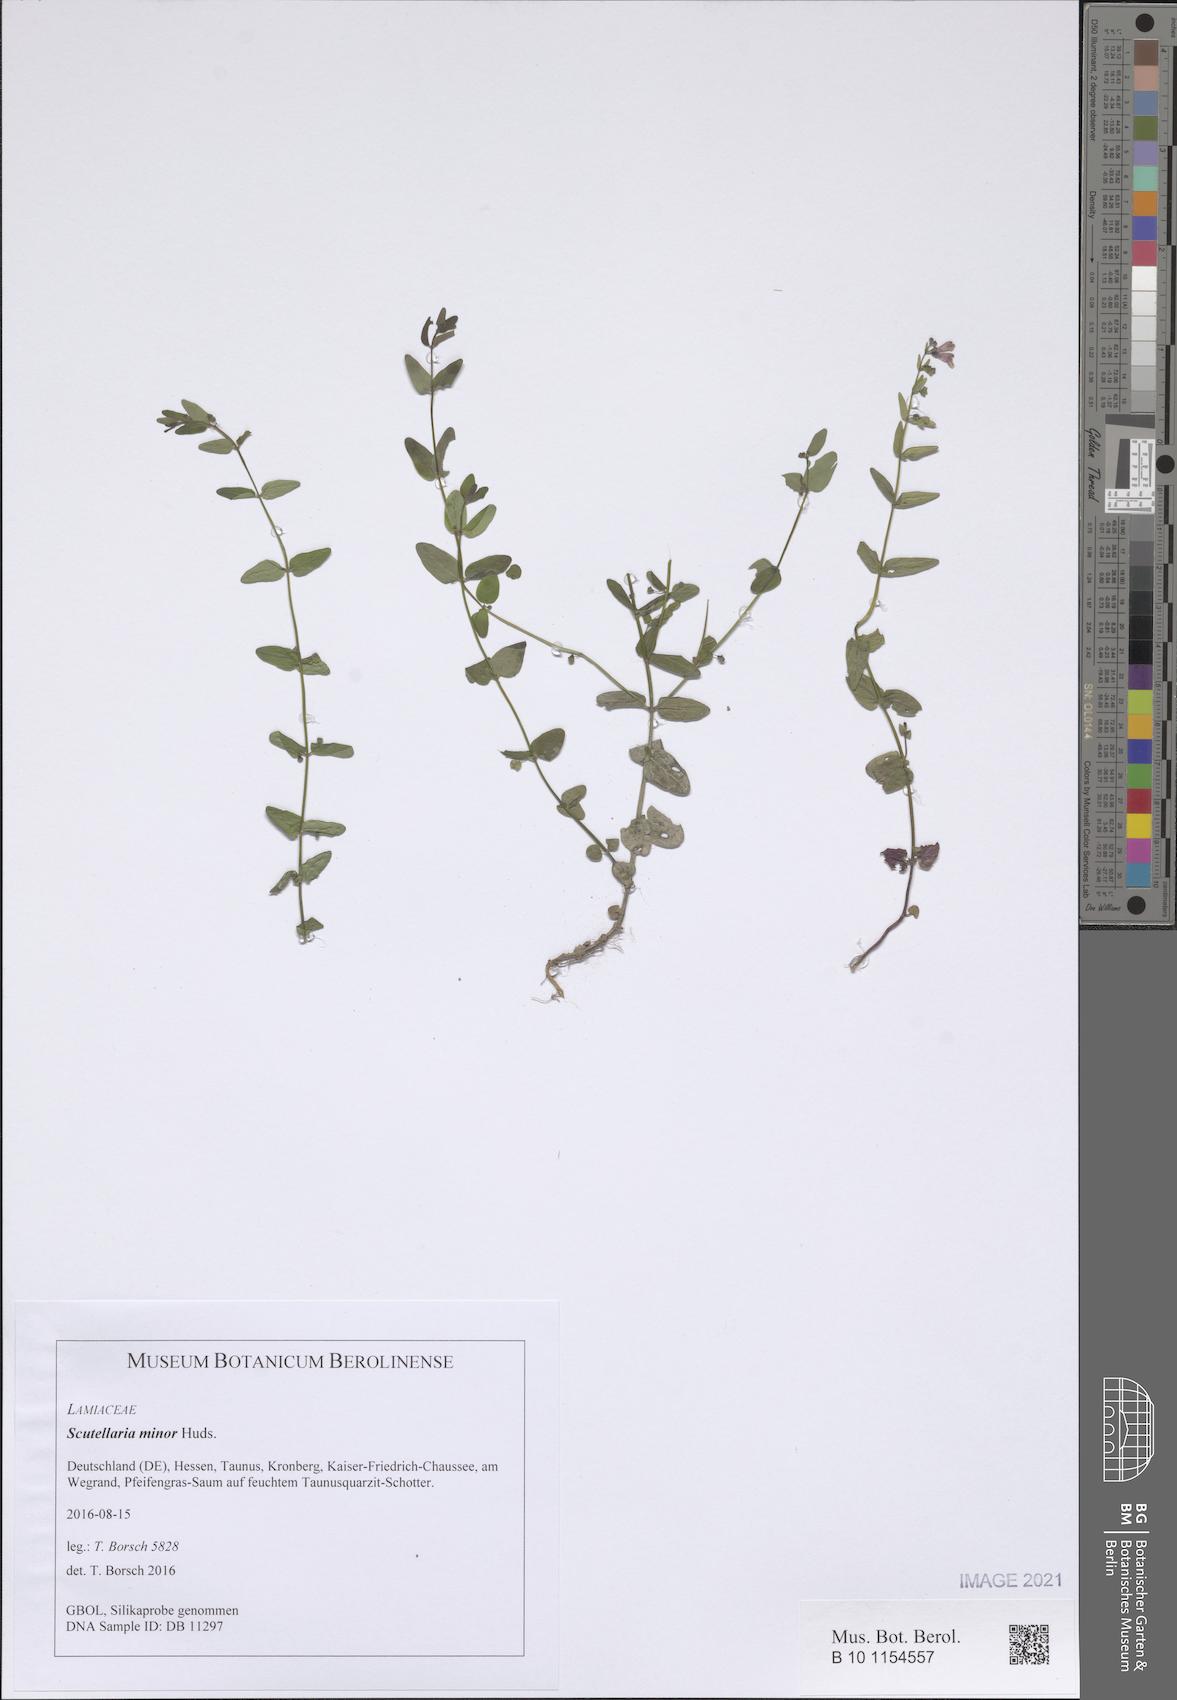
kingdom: Plantae
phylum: Tracheophyta
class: Magnoliopsida
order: Lamiales
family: Lamiaceae
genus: Scutellaria
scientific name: Scutellaria minor
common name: Lesser skullcap
